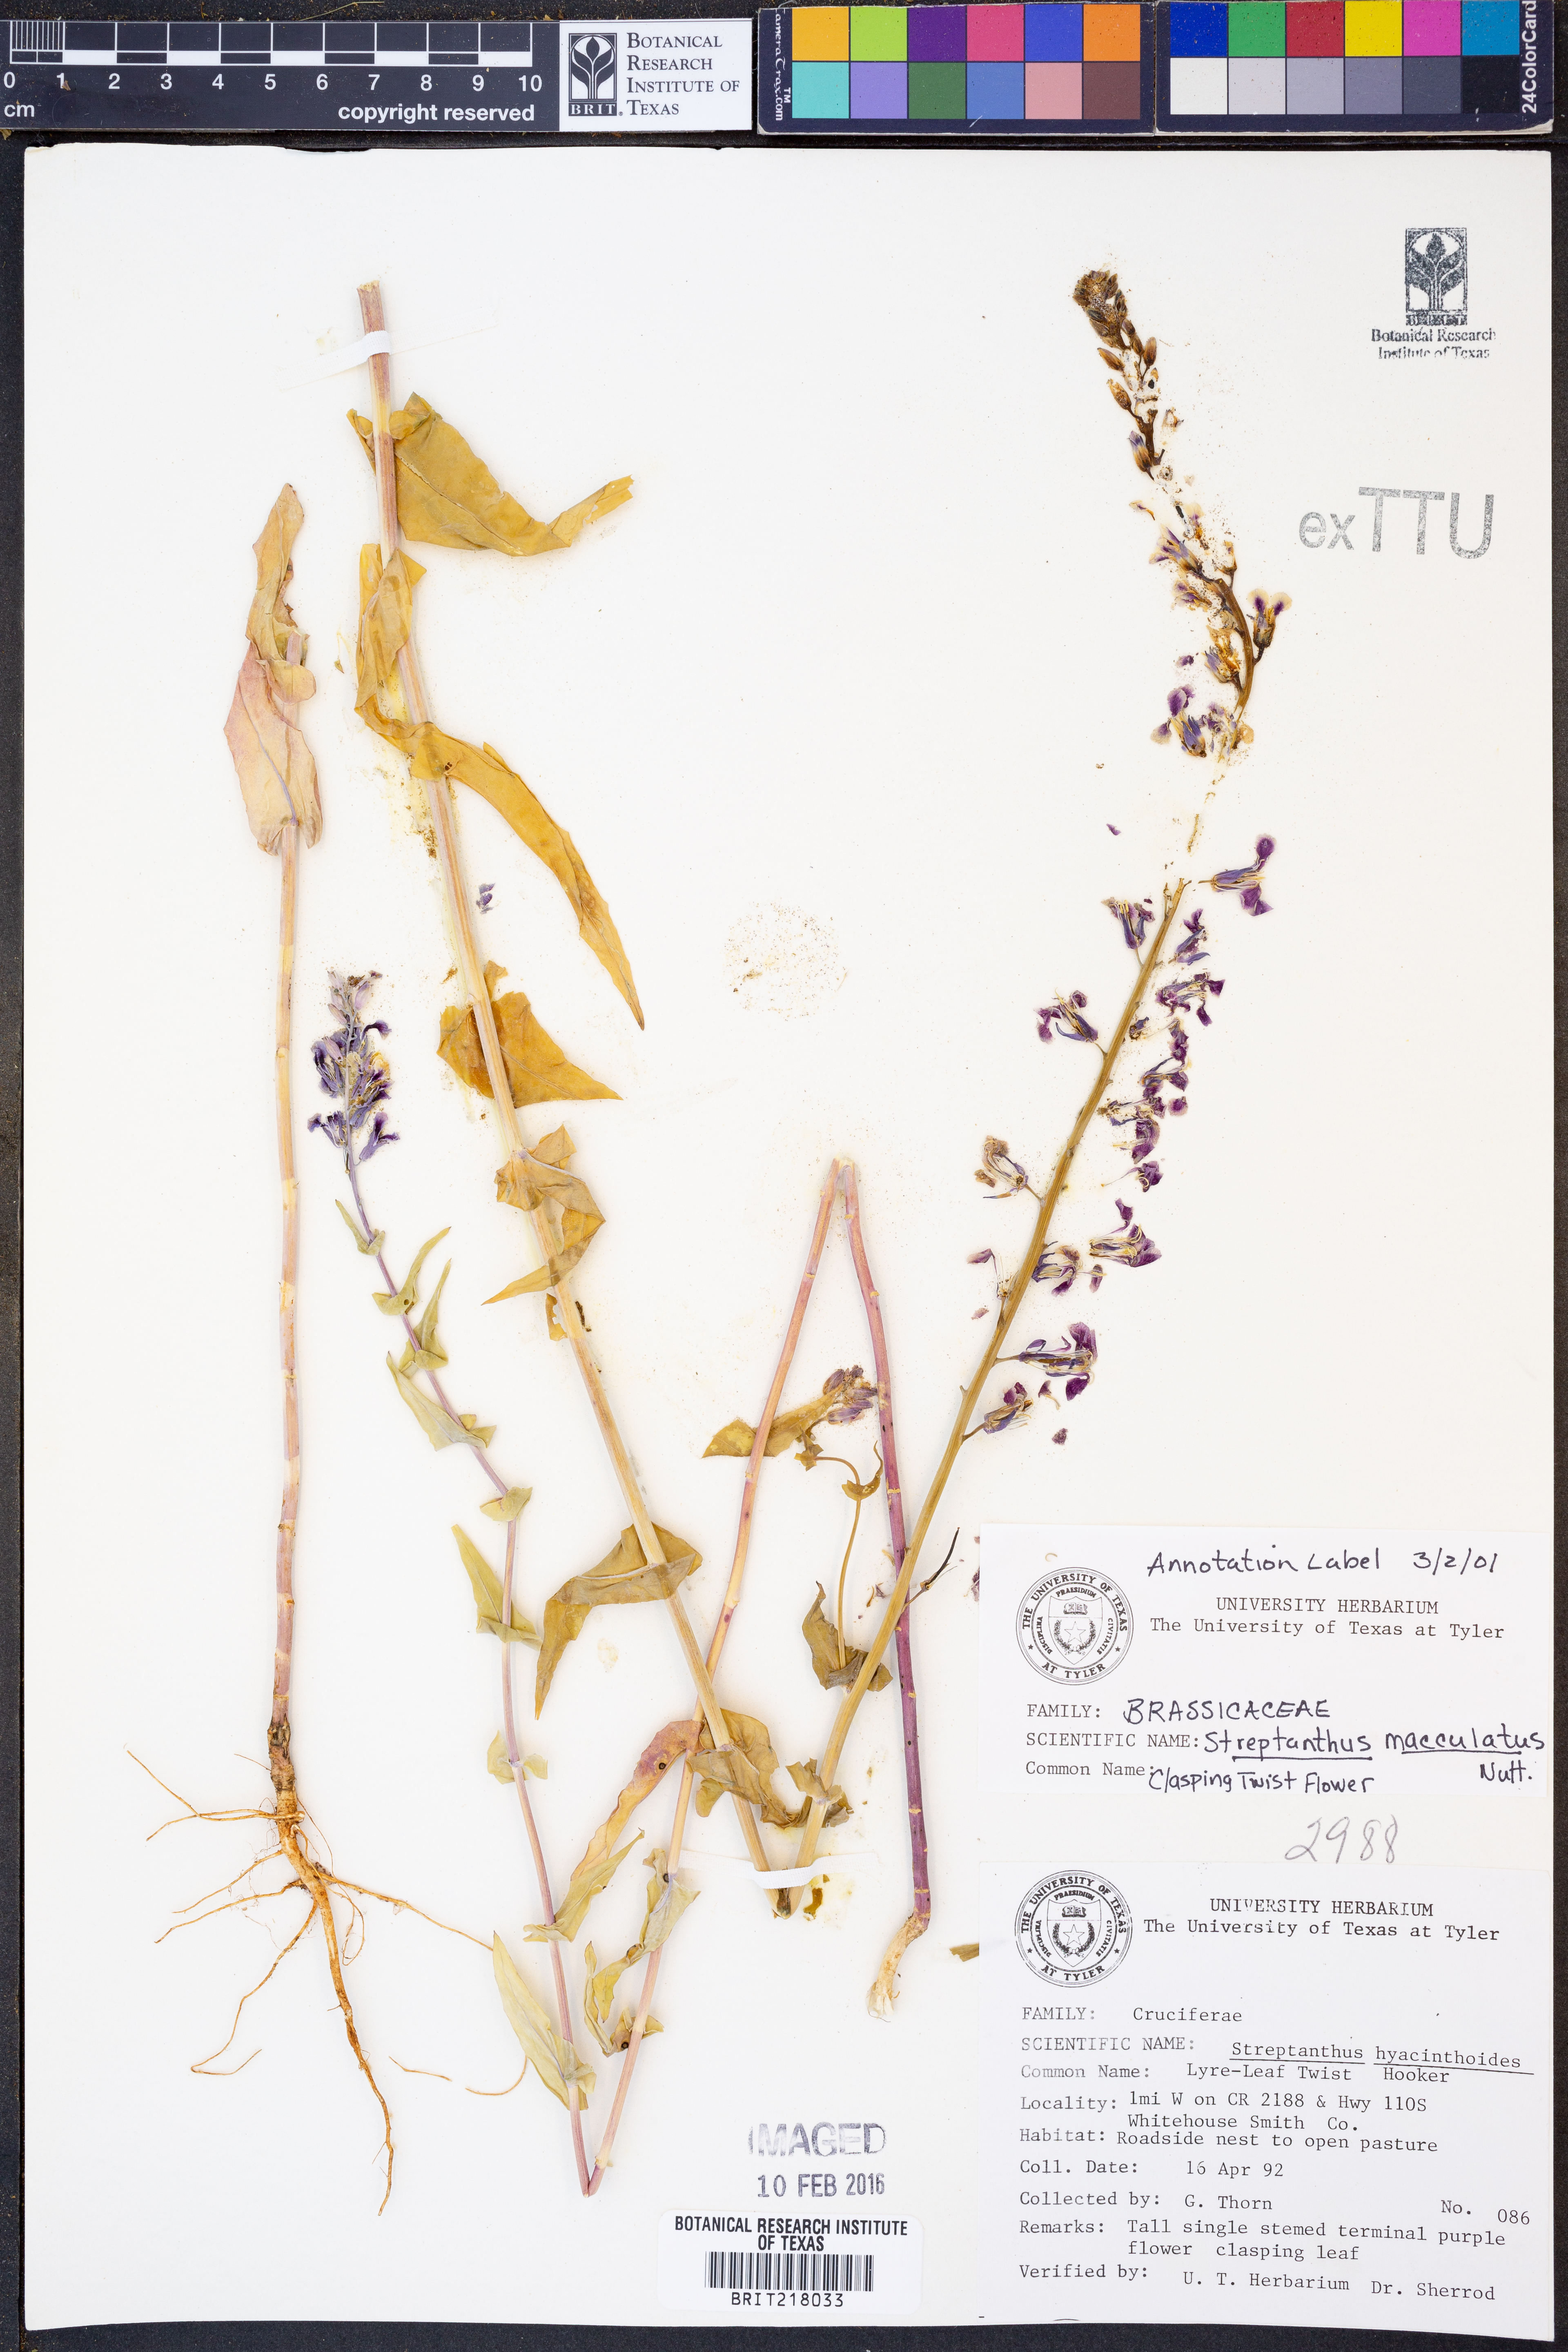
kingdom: Plantae
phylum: Tracheophyta
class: Magnoliopsida
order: Brassicales
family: Brassicaceae
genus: Streptanthus
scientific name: Streptanthus maculatus
